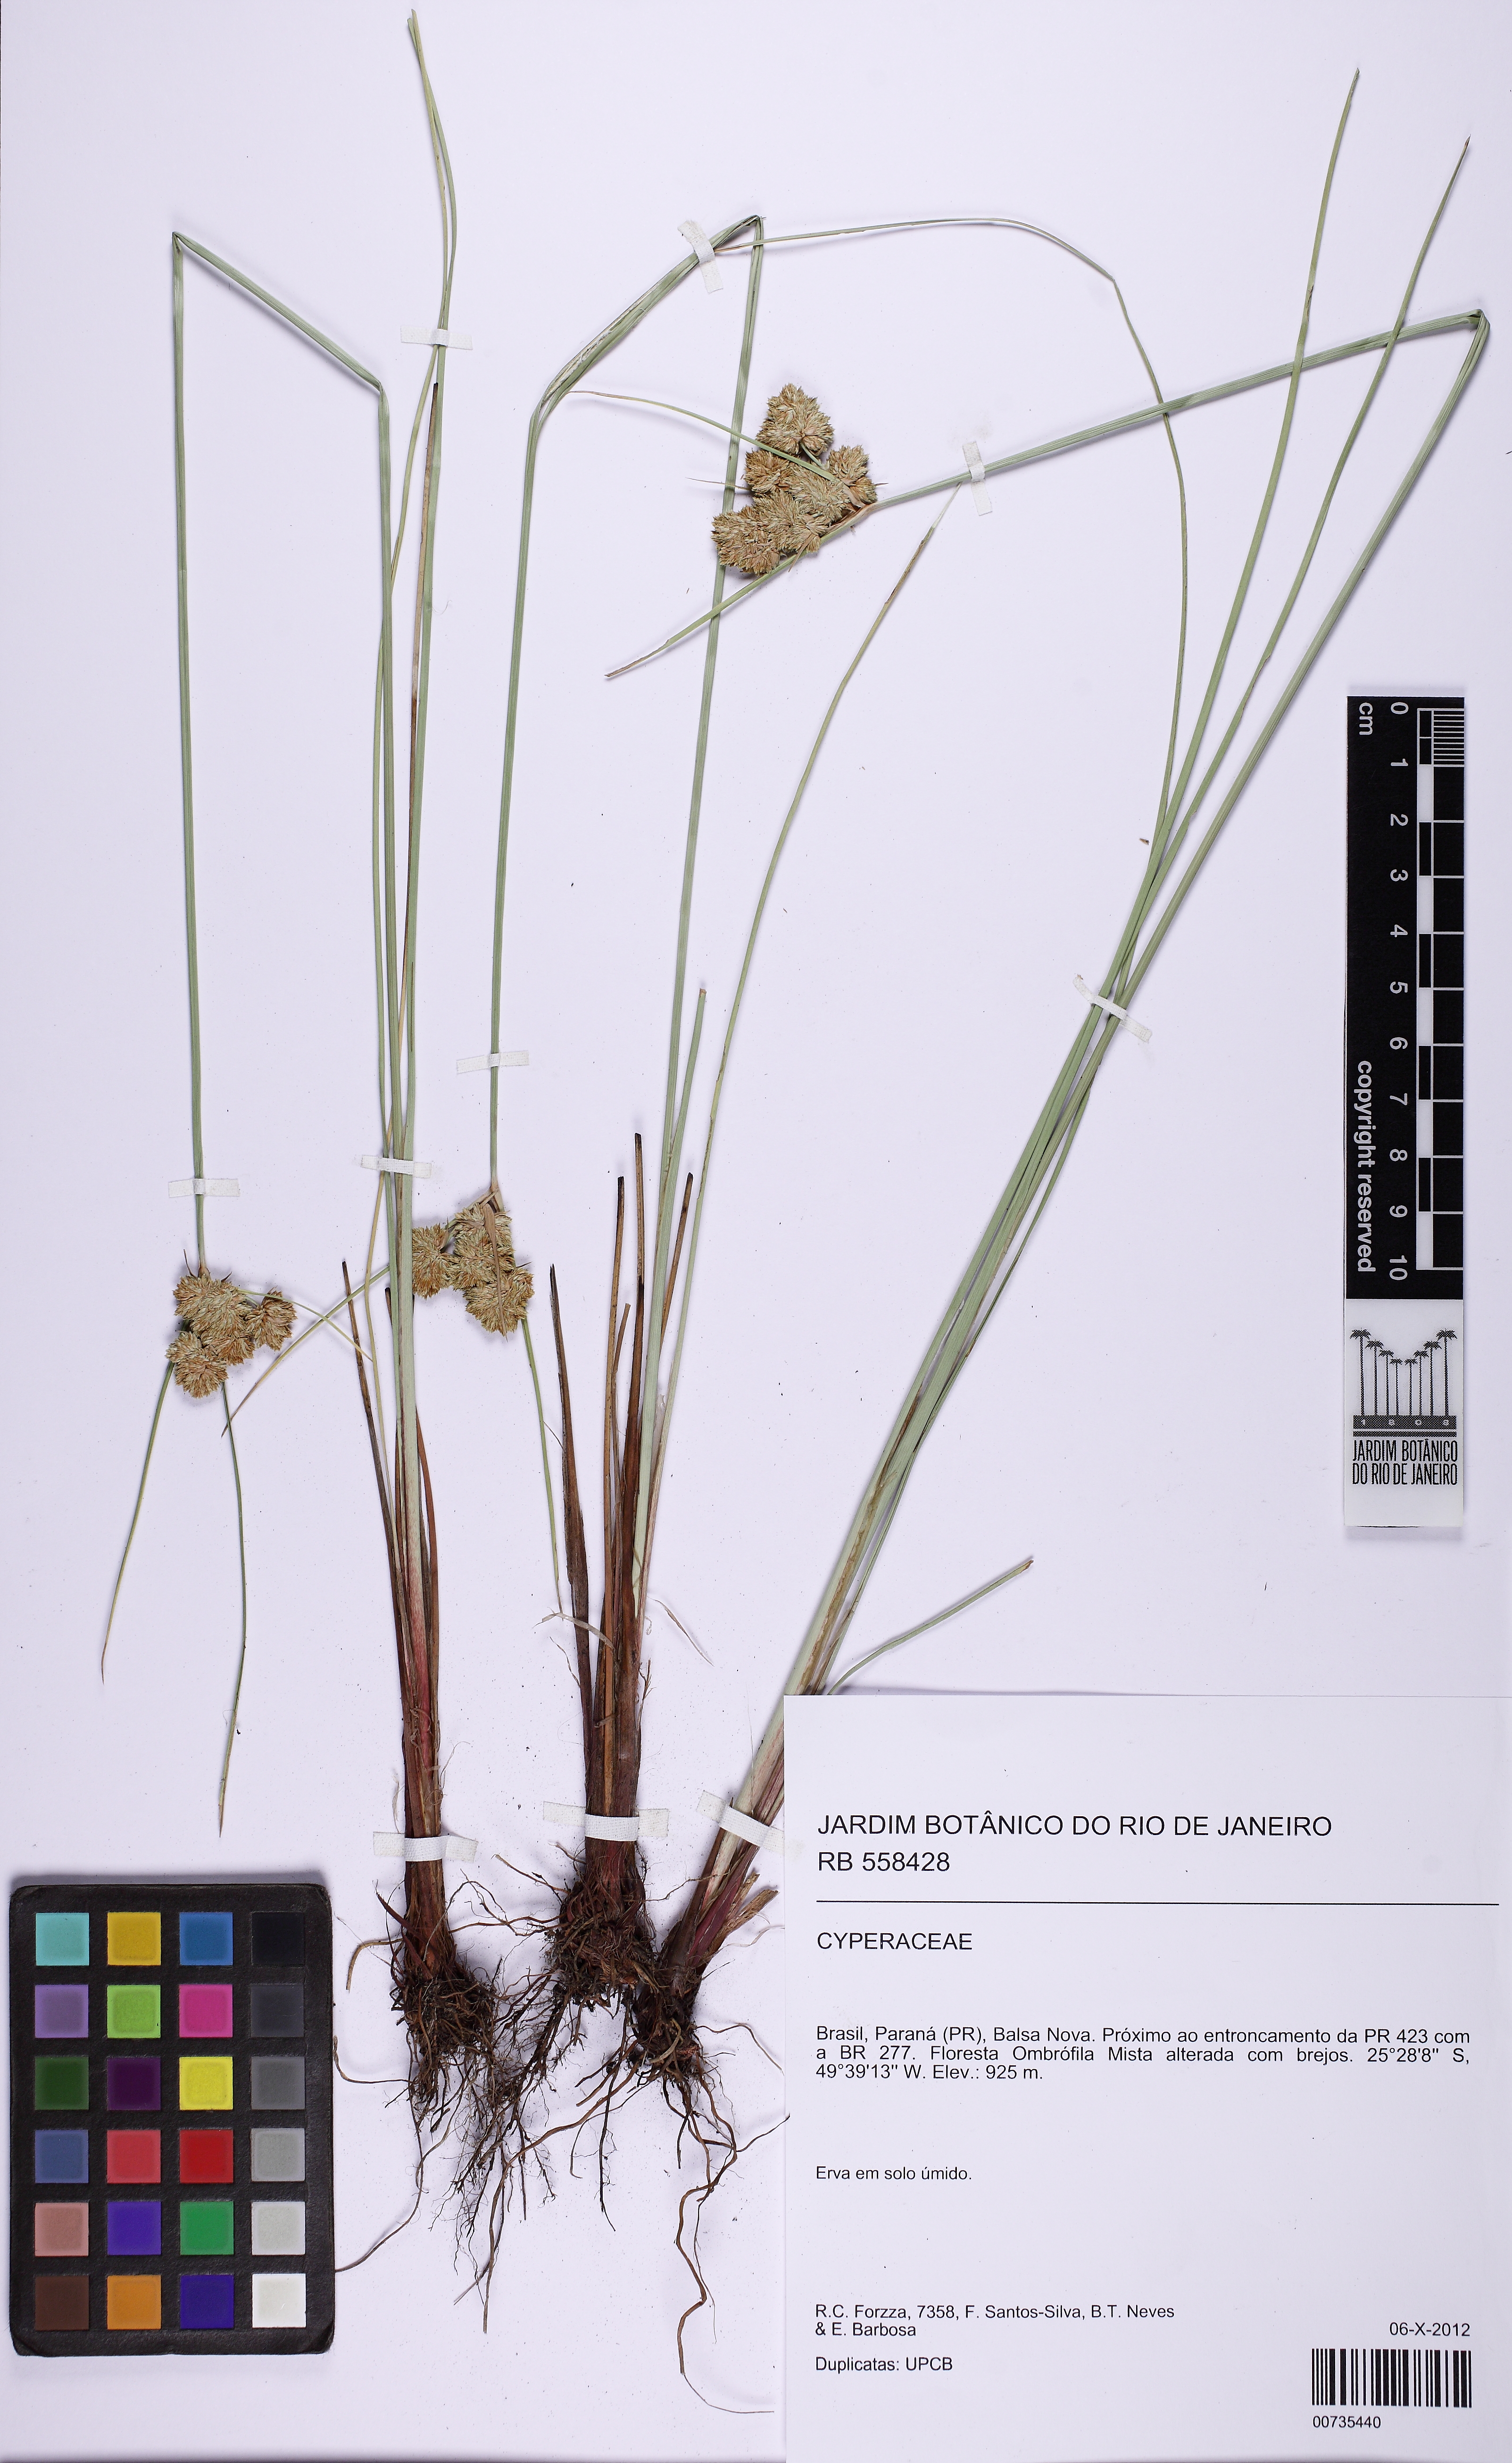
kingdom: Plantae
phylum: Tracheophyta
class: Liliopsida
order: Poales
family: Cyperaceae
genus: Cyperus
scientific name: Cyperus reflexus
